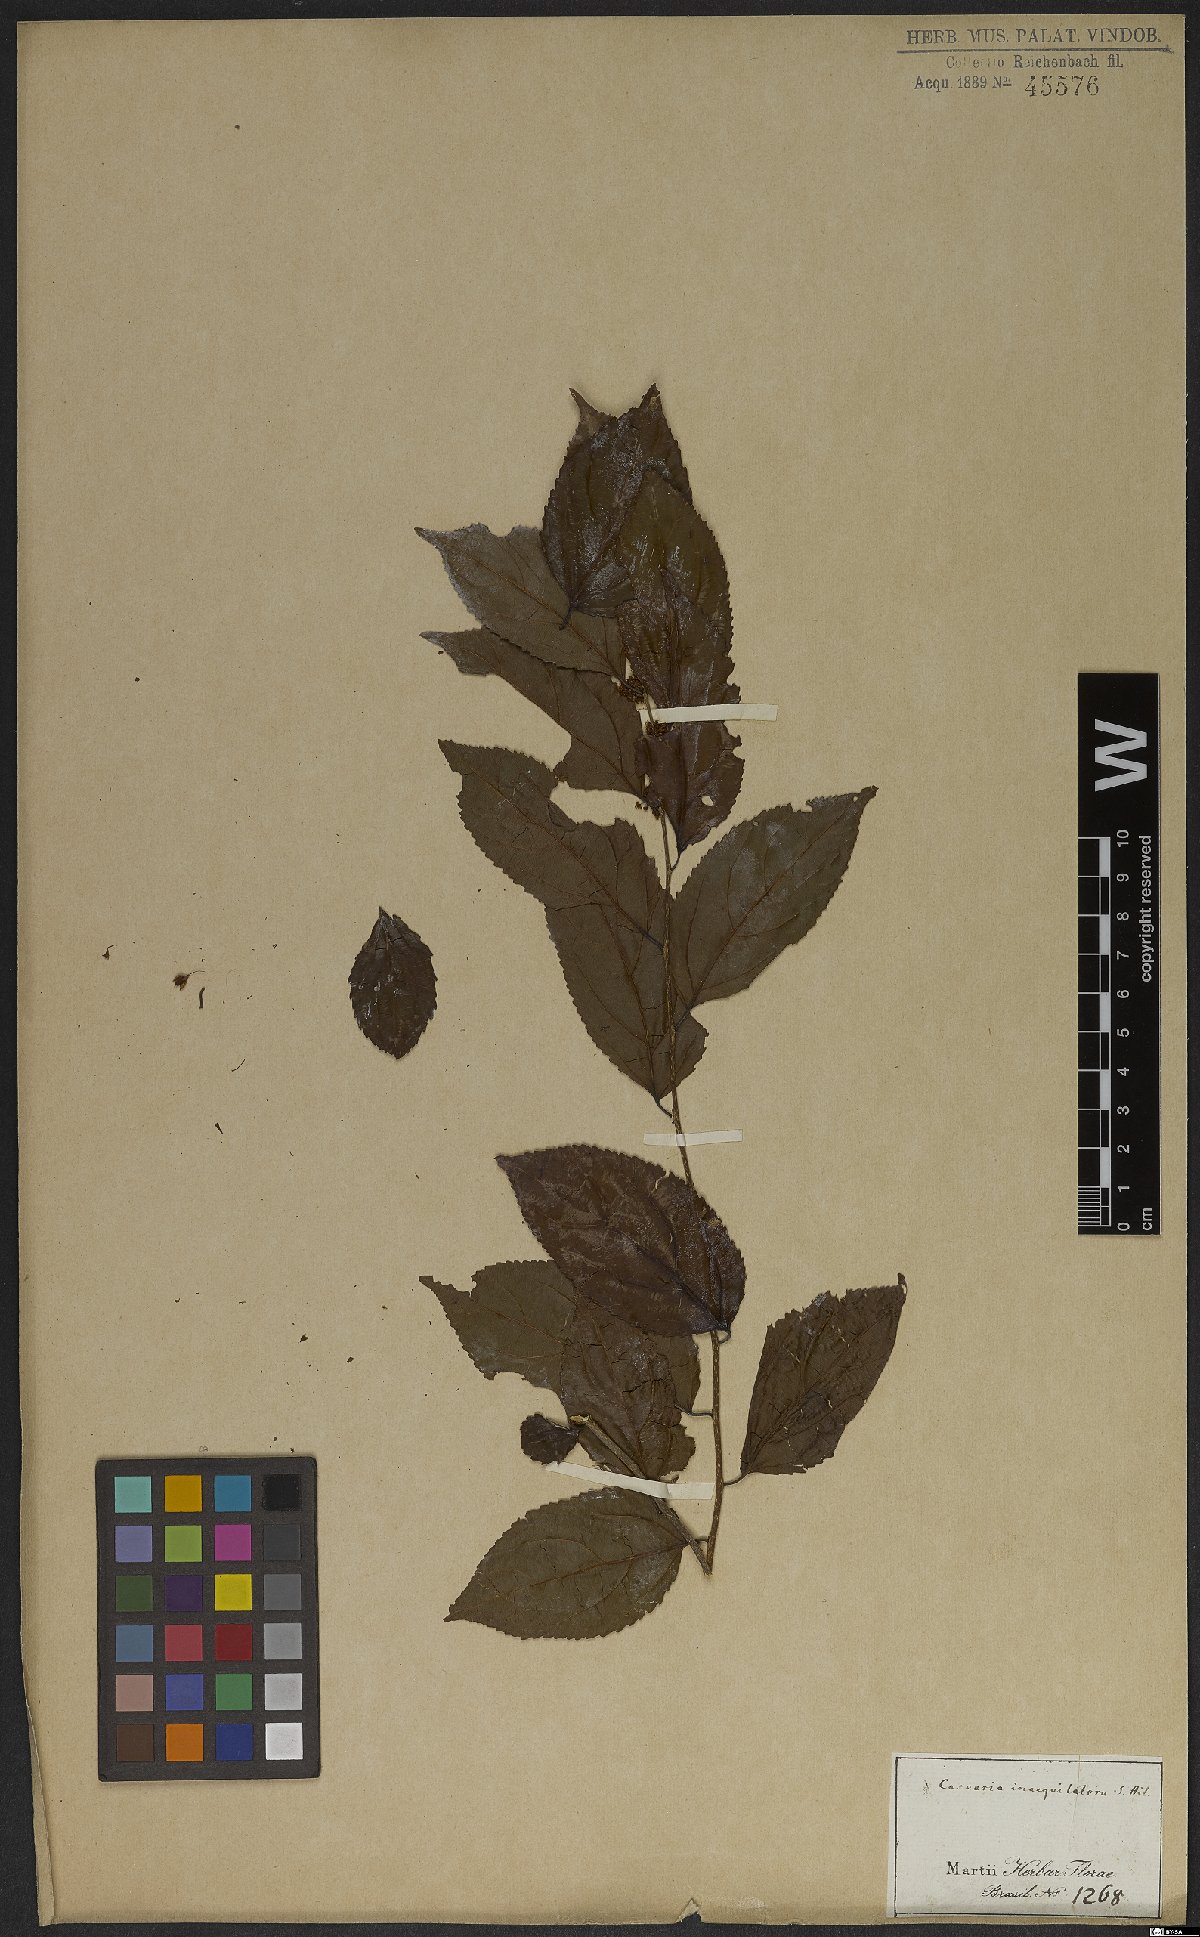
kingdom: Plantae
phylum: Tracheophyta
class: Magnoliopsida
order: Malpighiales
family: Salicaceae
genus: Casearia
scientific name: Casearia obliqua
